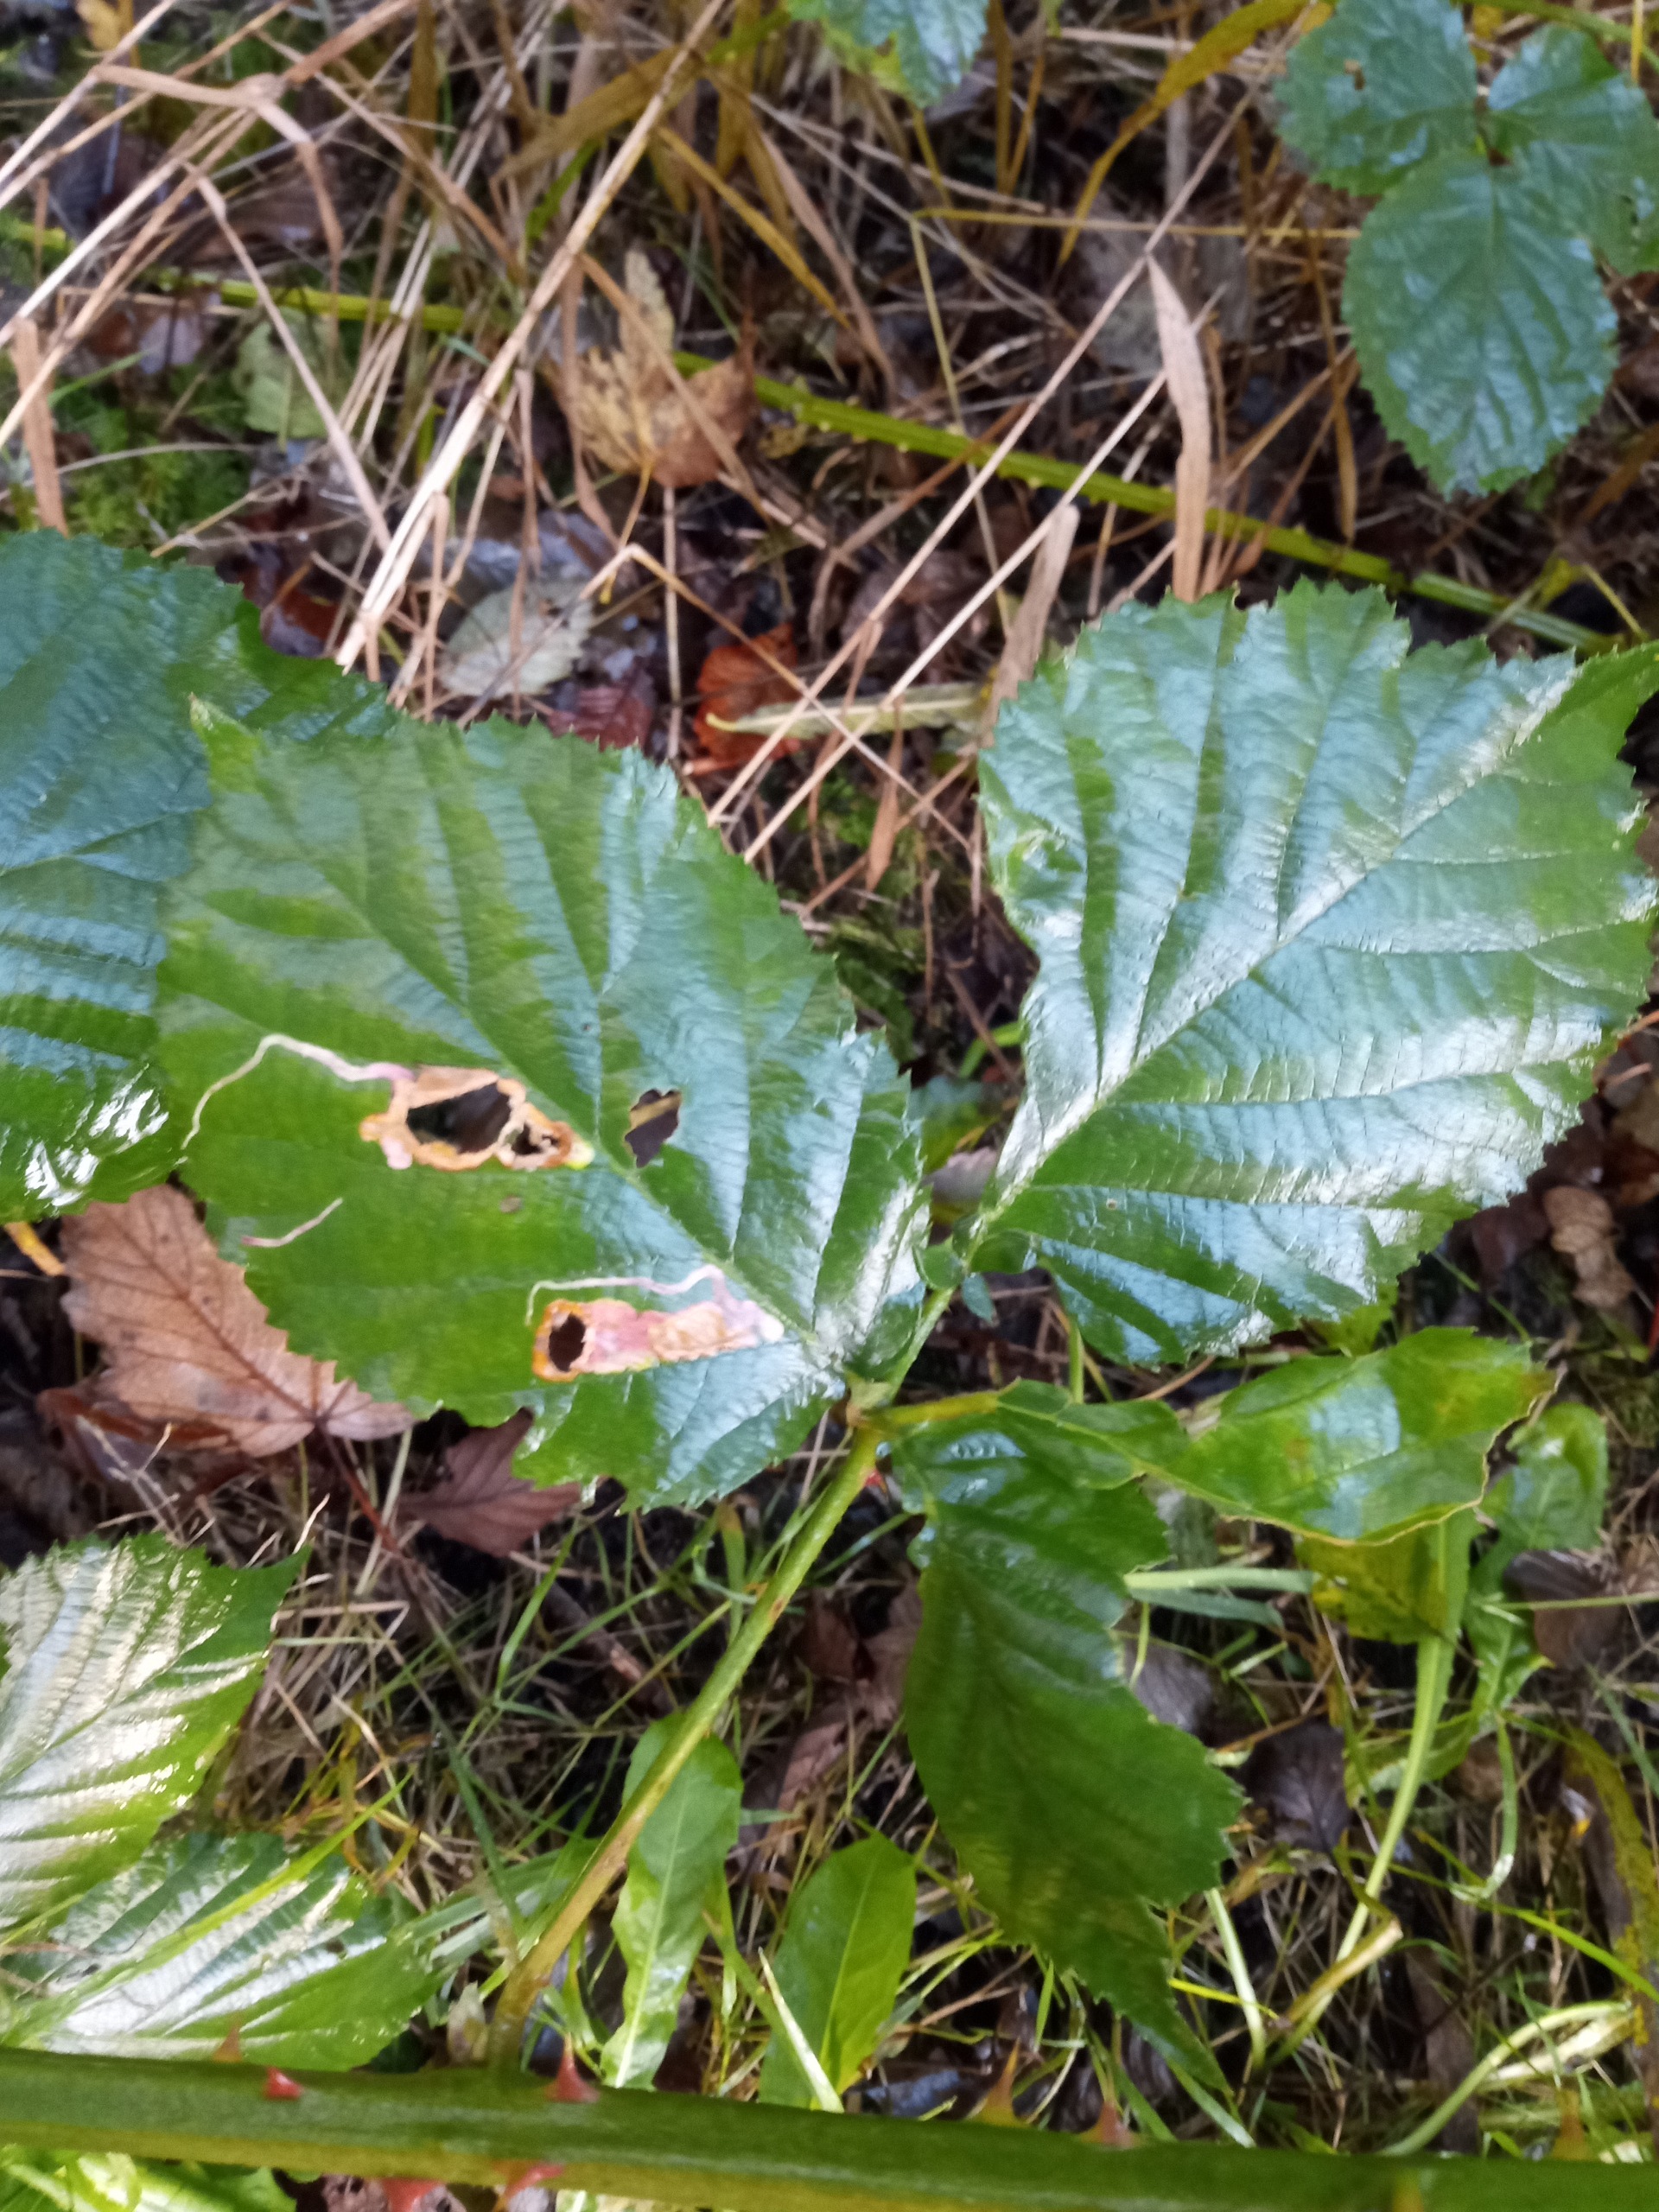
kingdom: Plantae
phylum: Tracheophyta
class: Magnoliopsida
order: Rosales
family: Rosaceae
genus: Rubus
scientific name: Rubus
